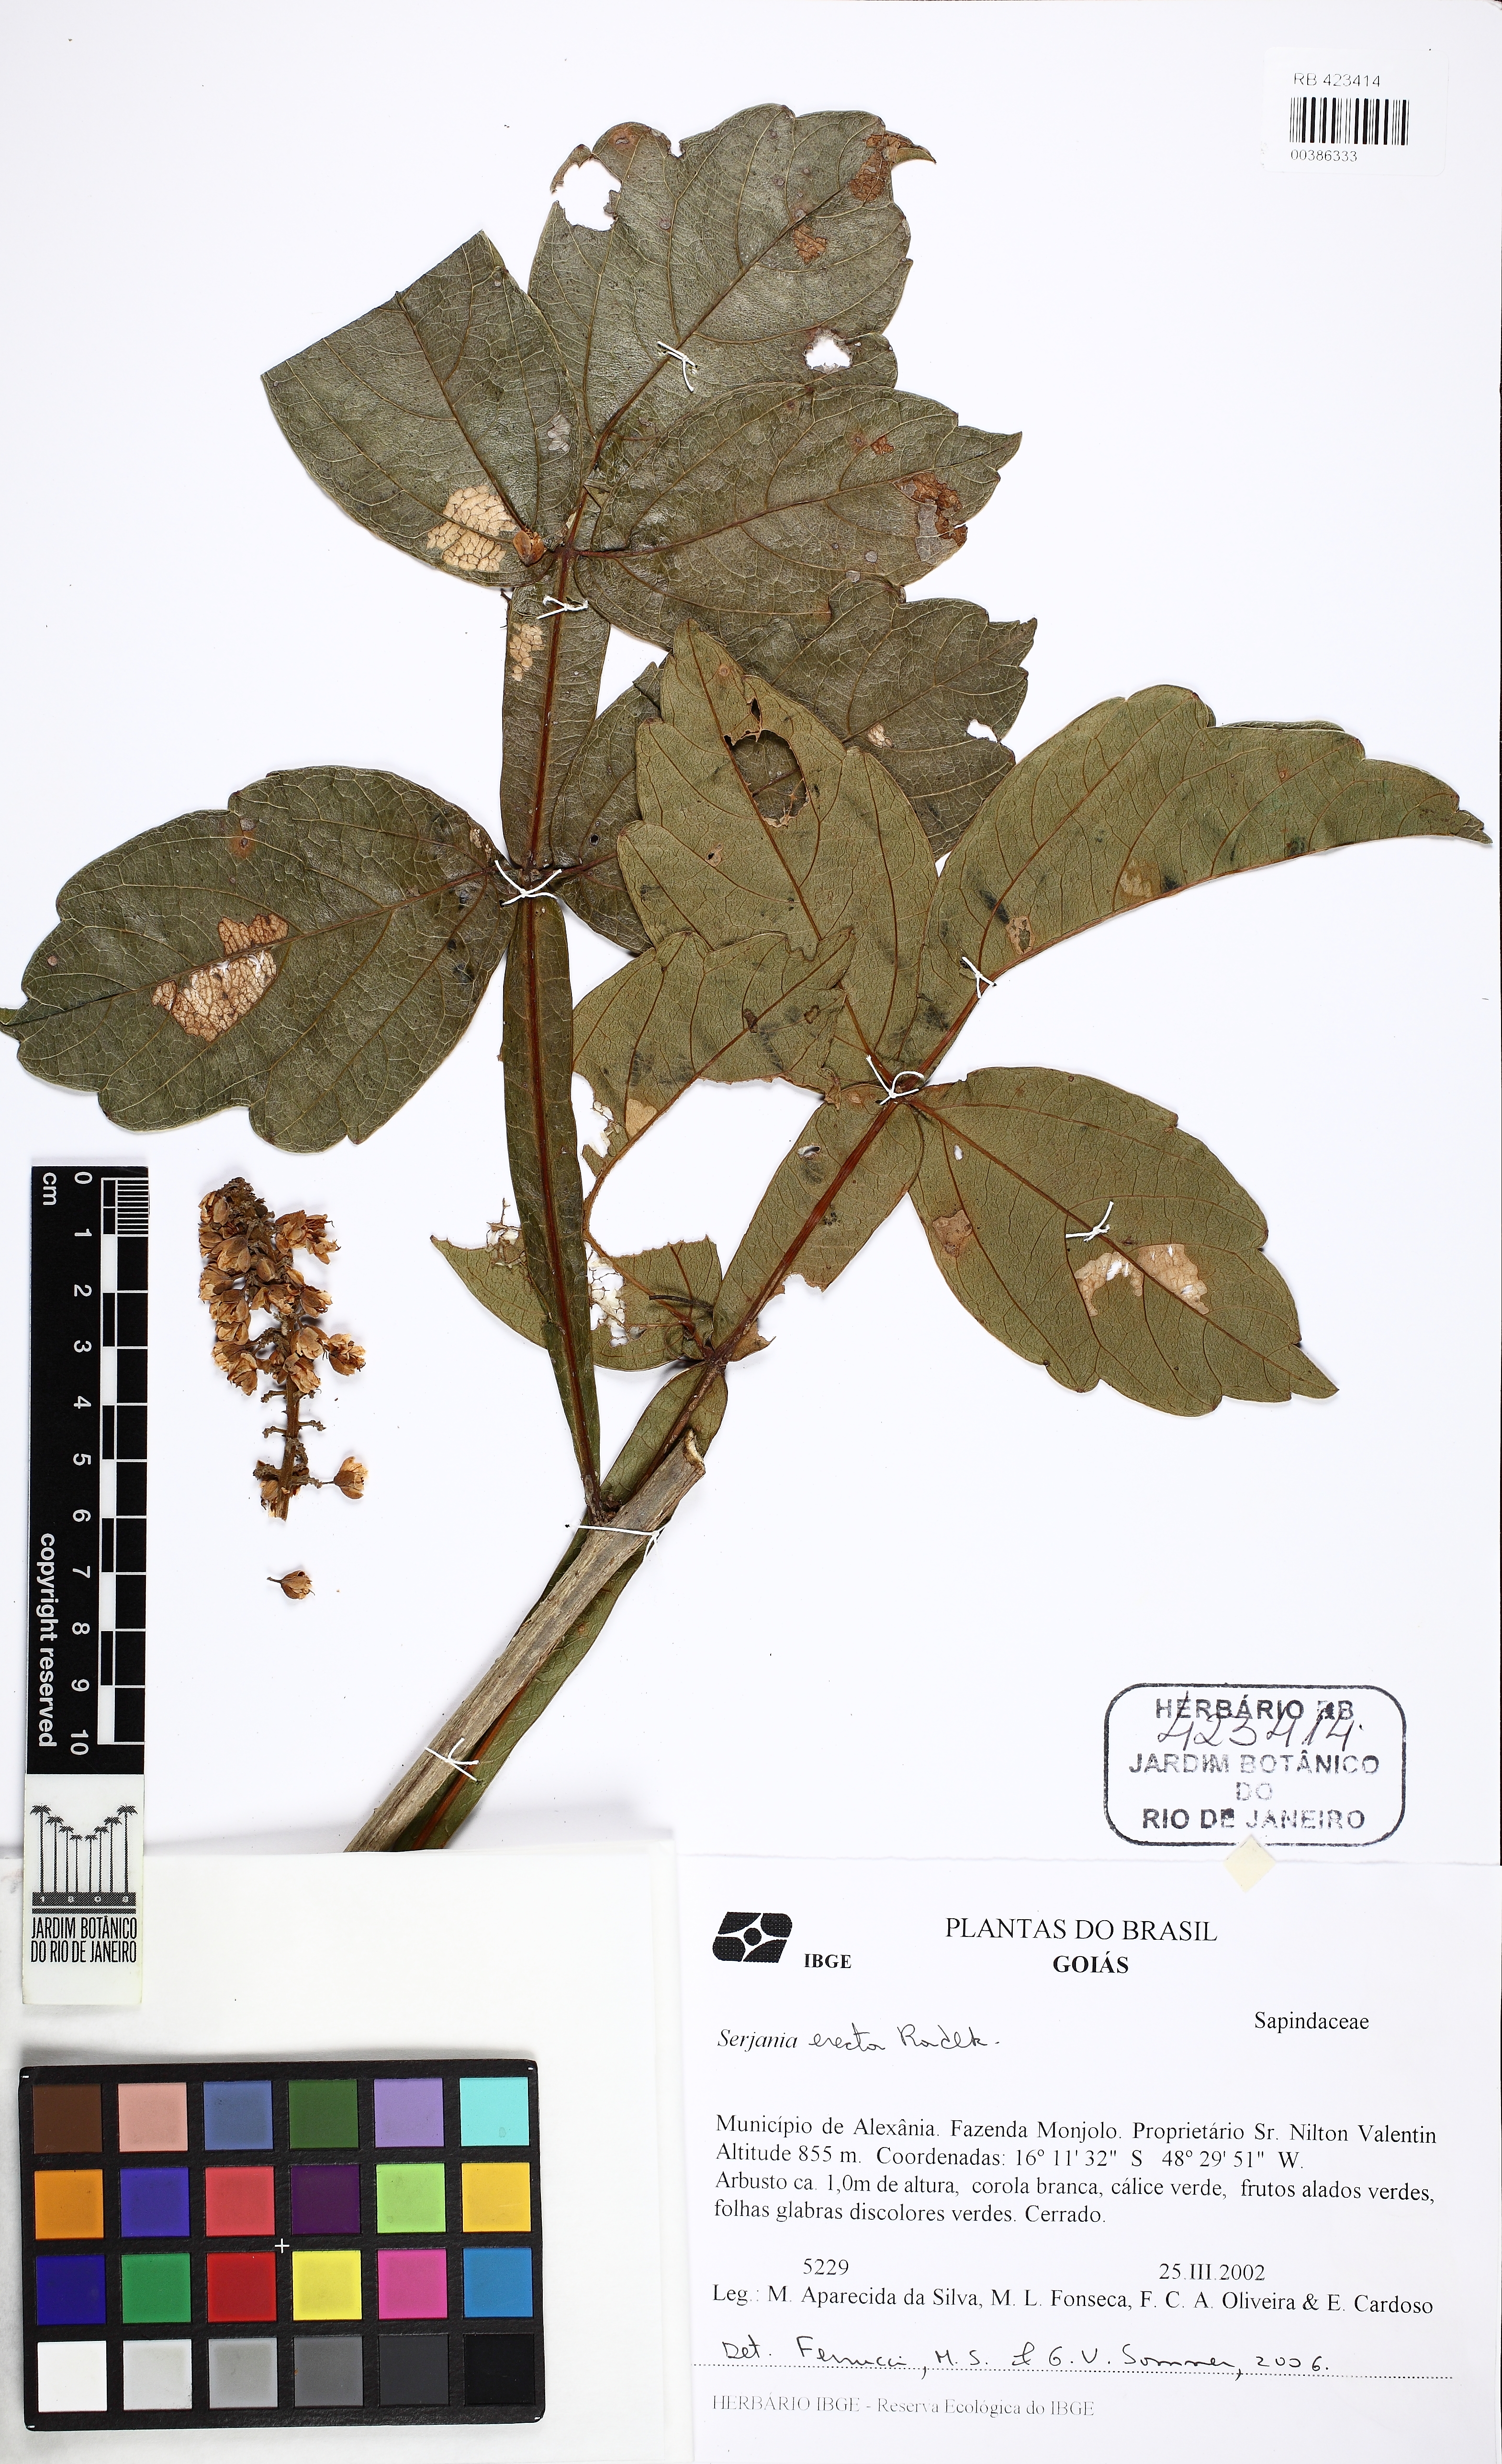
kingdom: Plantae
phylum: Tracheophyta
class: Magnoliopsida
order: Sapindales
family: Sapindaceae
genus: Serjania
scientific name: Serjania erecta
